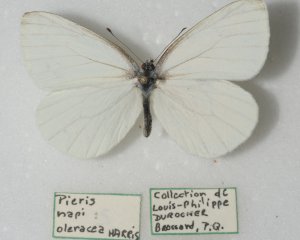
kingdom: Animalia
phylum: Arthropoda
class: Insecta
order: Lepidoptera
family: Pieridae
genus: Pieris
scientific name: Pieris oleracea
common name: Mustard White
